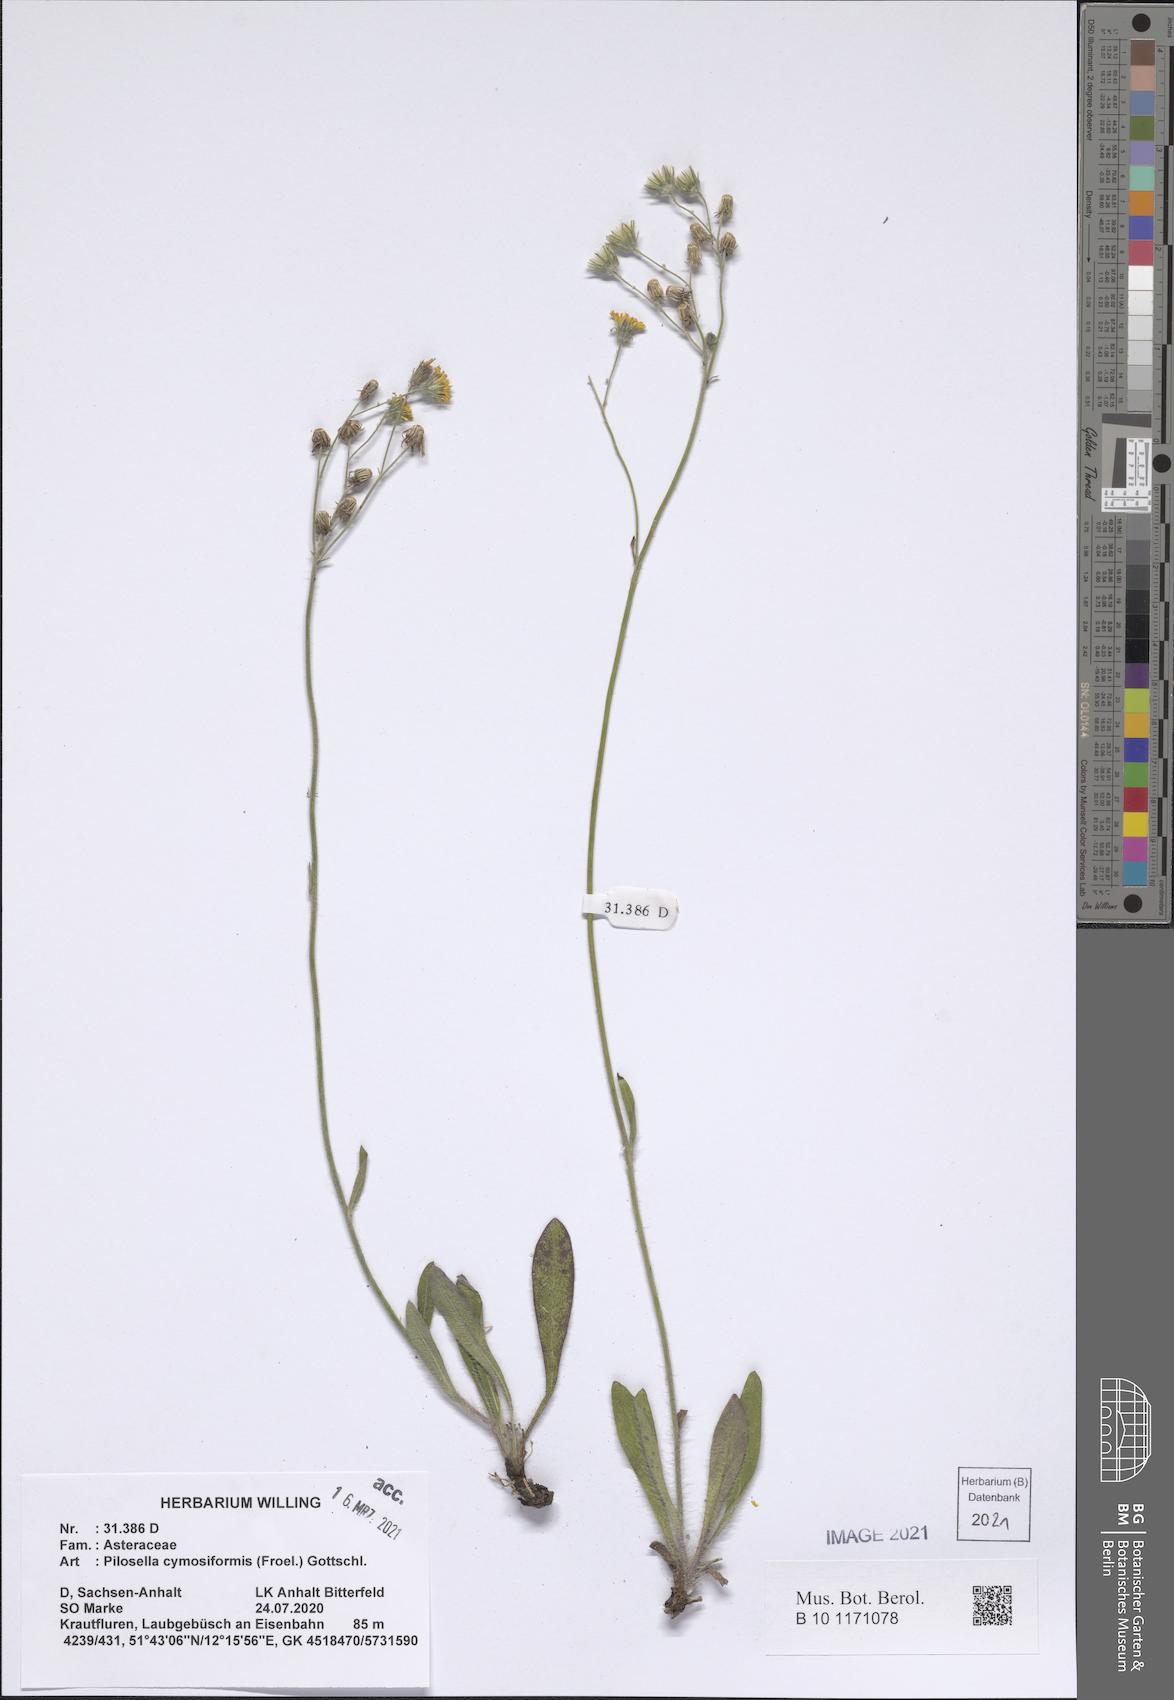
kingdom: Plantae
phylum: Tracheophyta
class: Magnoliopsida
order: Asterales
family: Asteraceae
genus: Pilosella
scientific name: Pilosella cymosiformis
